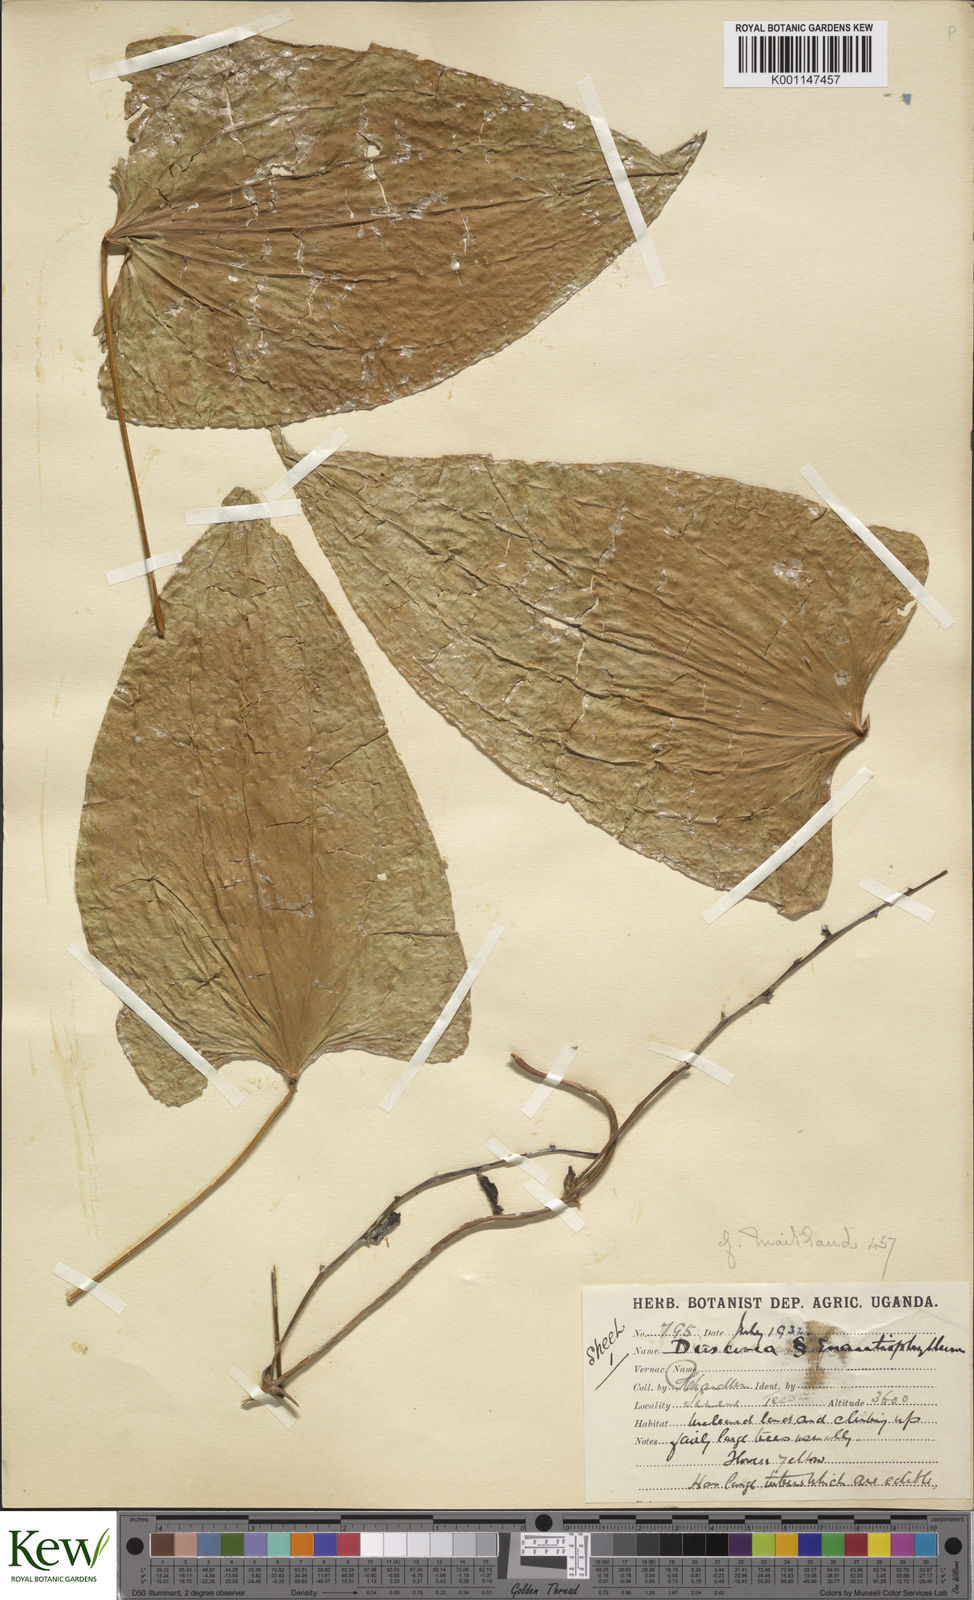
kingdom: Plantae
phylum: Tracheophyta
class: Liliopsida
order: Dioscoreales
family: Dioscoreaceae
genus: Dioscorea
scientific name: Dioscorea
